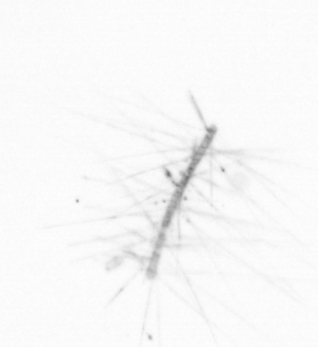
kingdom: Chromista
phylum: Ochrophyta
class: Bacillariophyceae
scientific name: Bacillariophyceae
